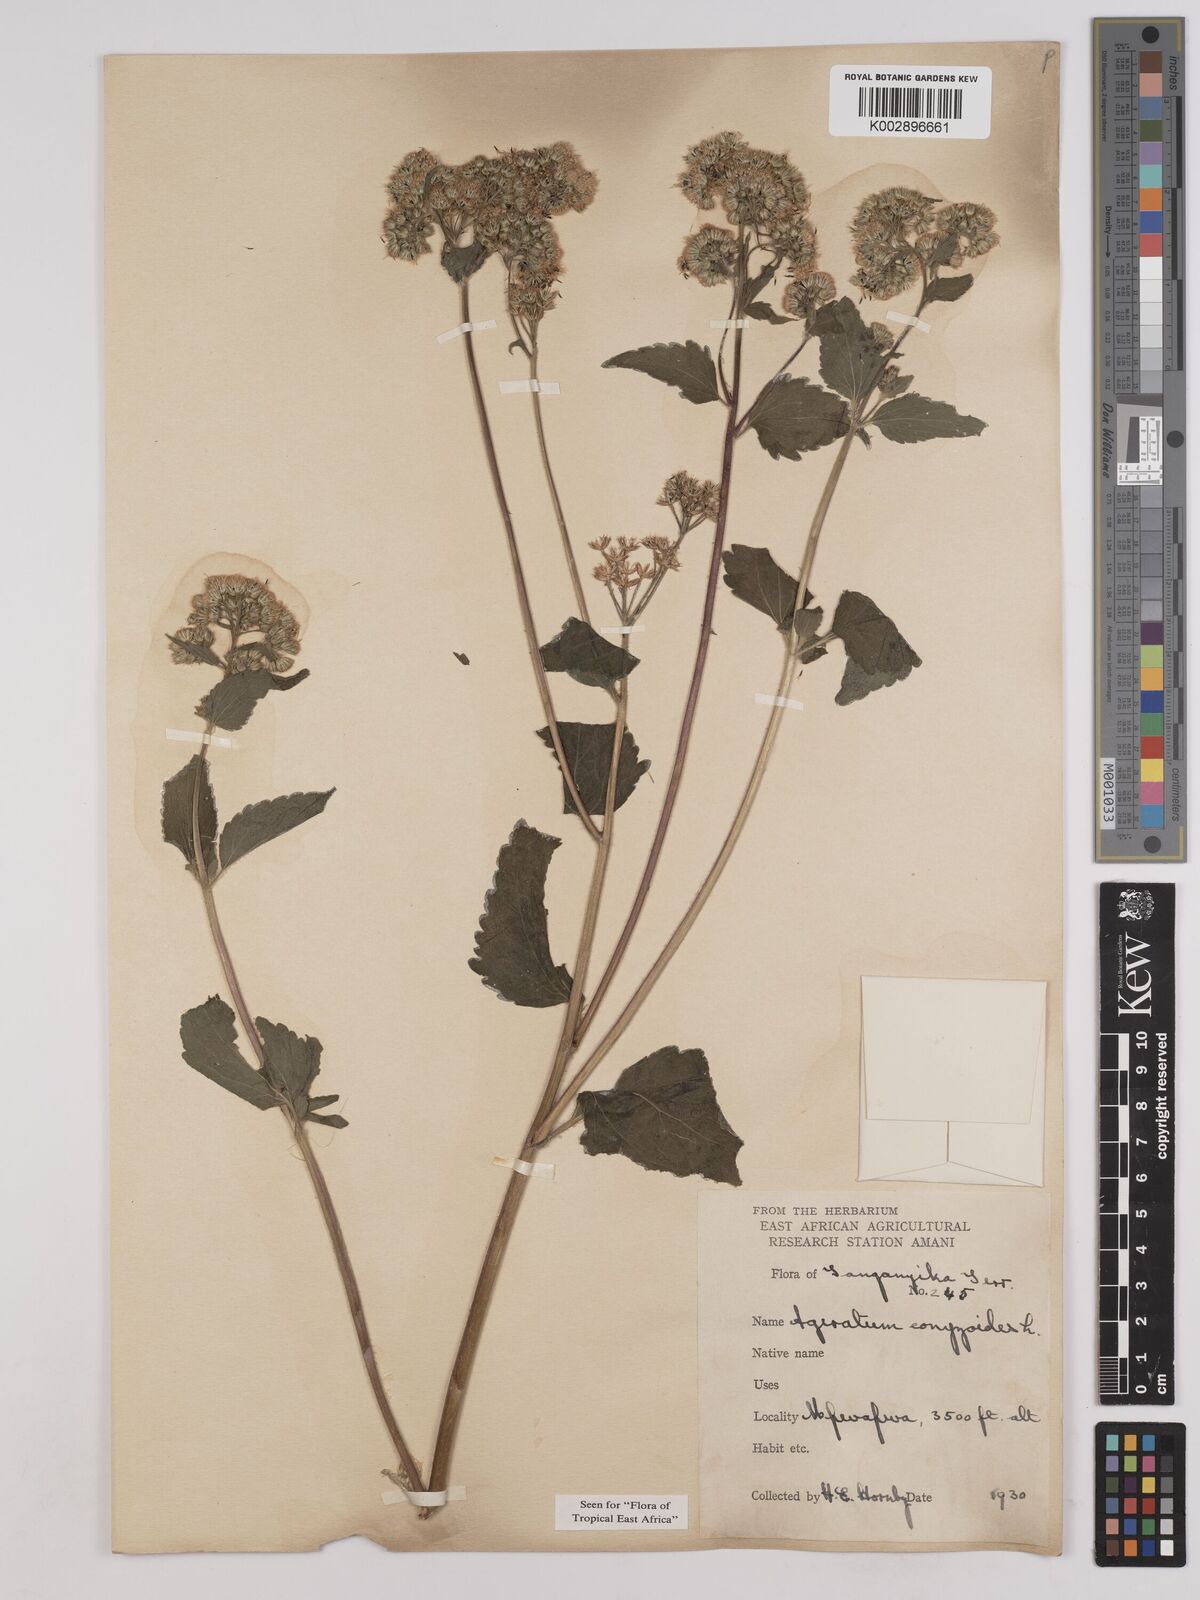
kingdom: Plantae
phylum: Tracheophyta
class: Magnoliopsida
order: Asterales
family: Asteraceae
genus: Ageratum
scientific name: Ageratum conyzoides
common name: Tropical whiteweed
